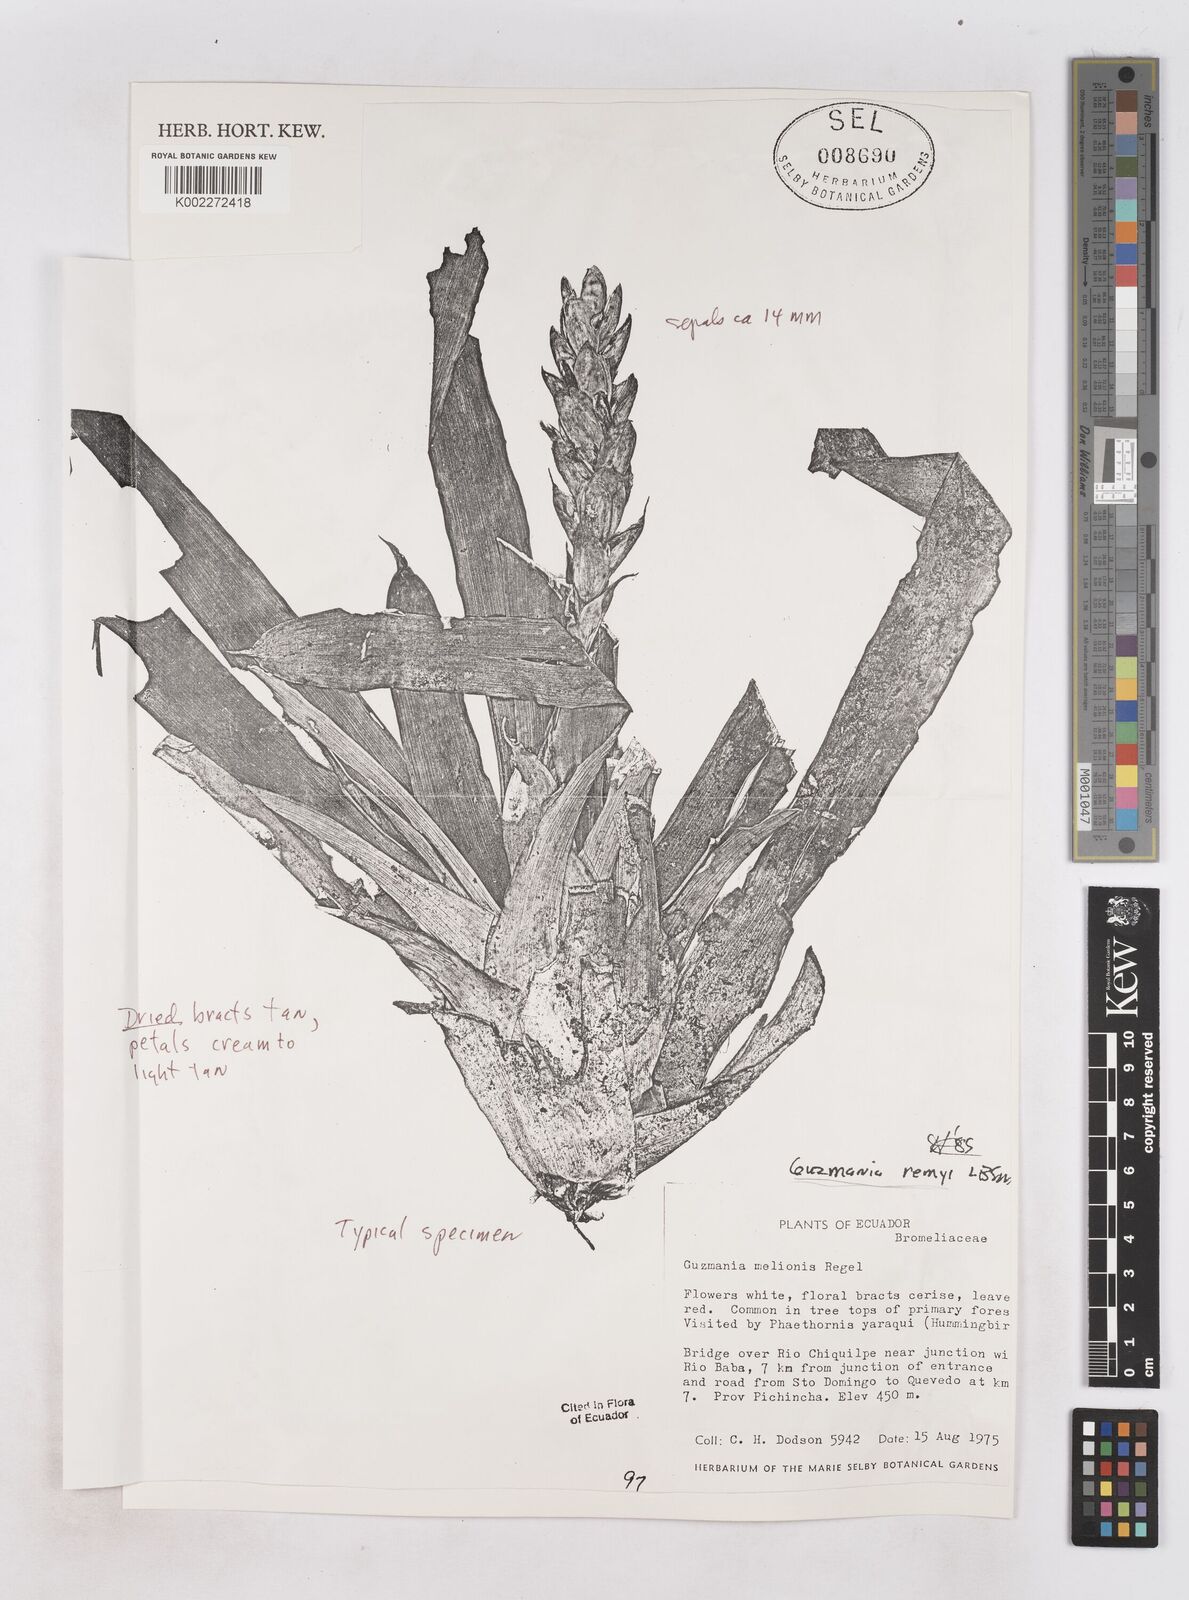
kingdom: Plantae
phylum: Tracheophyta
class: Liliopsida
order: Poales
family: Bromeliaceae
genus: Guzmania
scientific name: Guzmania remyi
